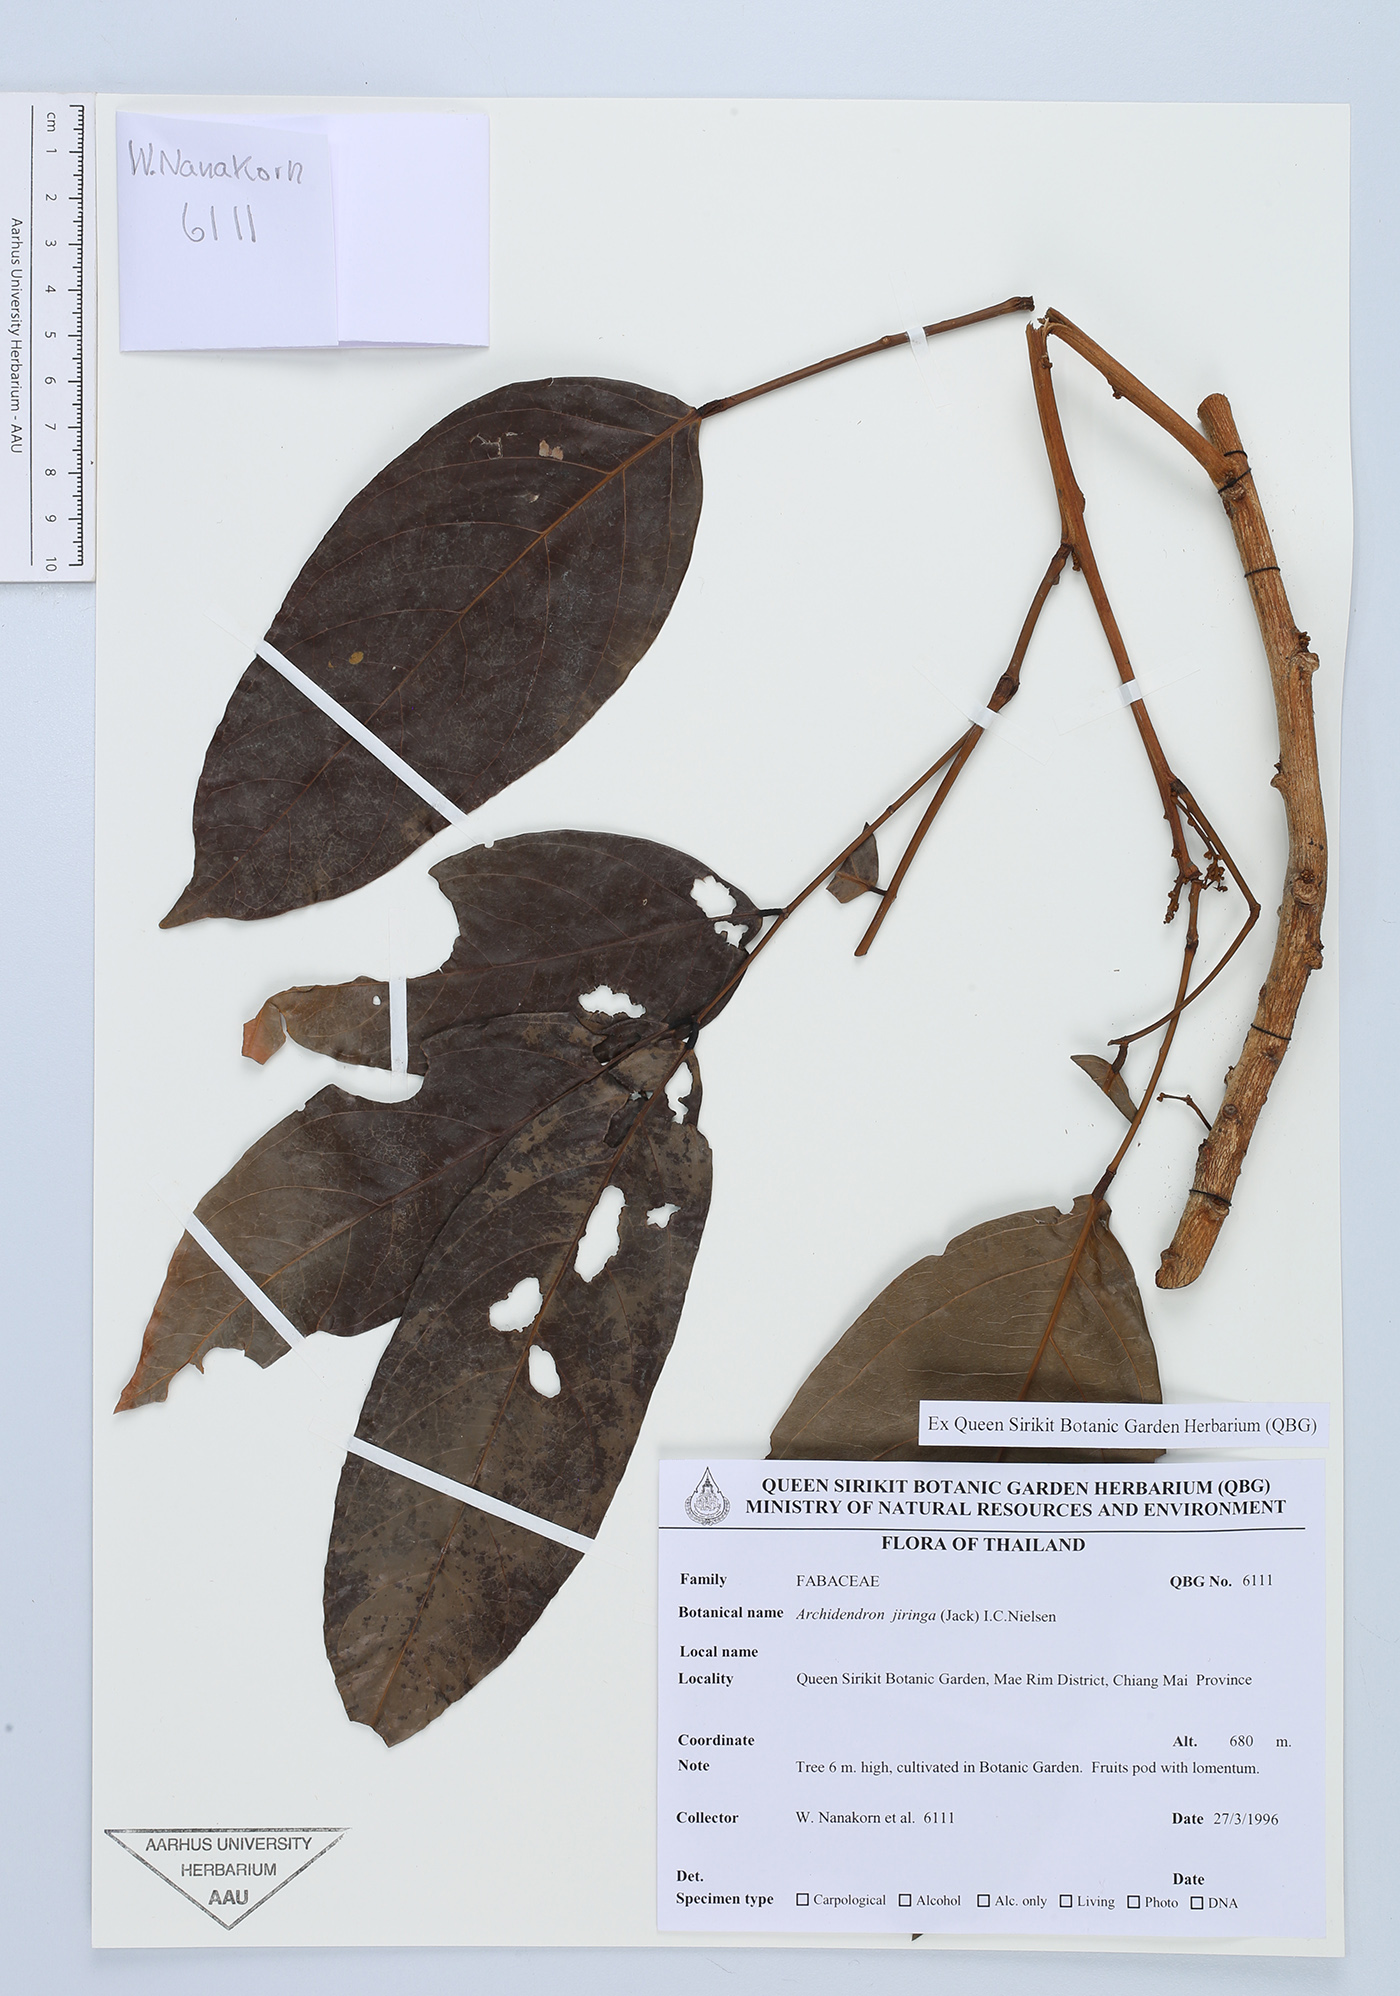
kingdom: Plantae
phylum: Tracheophyta
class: Magnoliopsida
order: Fabales
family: Fabaceae
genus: Archidendron
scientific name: Archidendron jiringa
